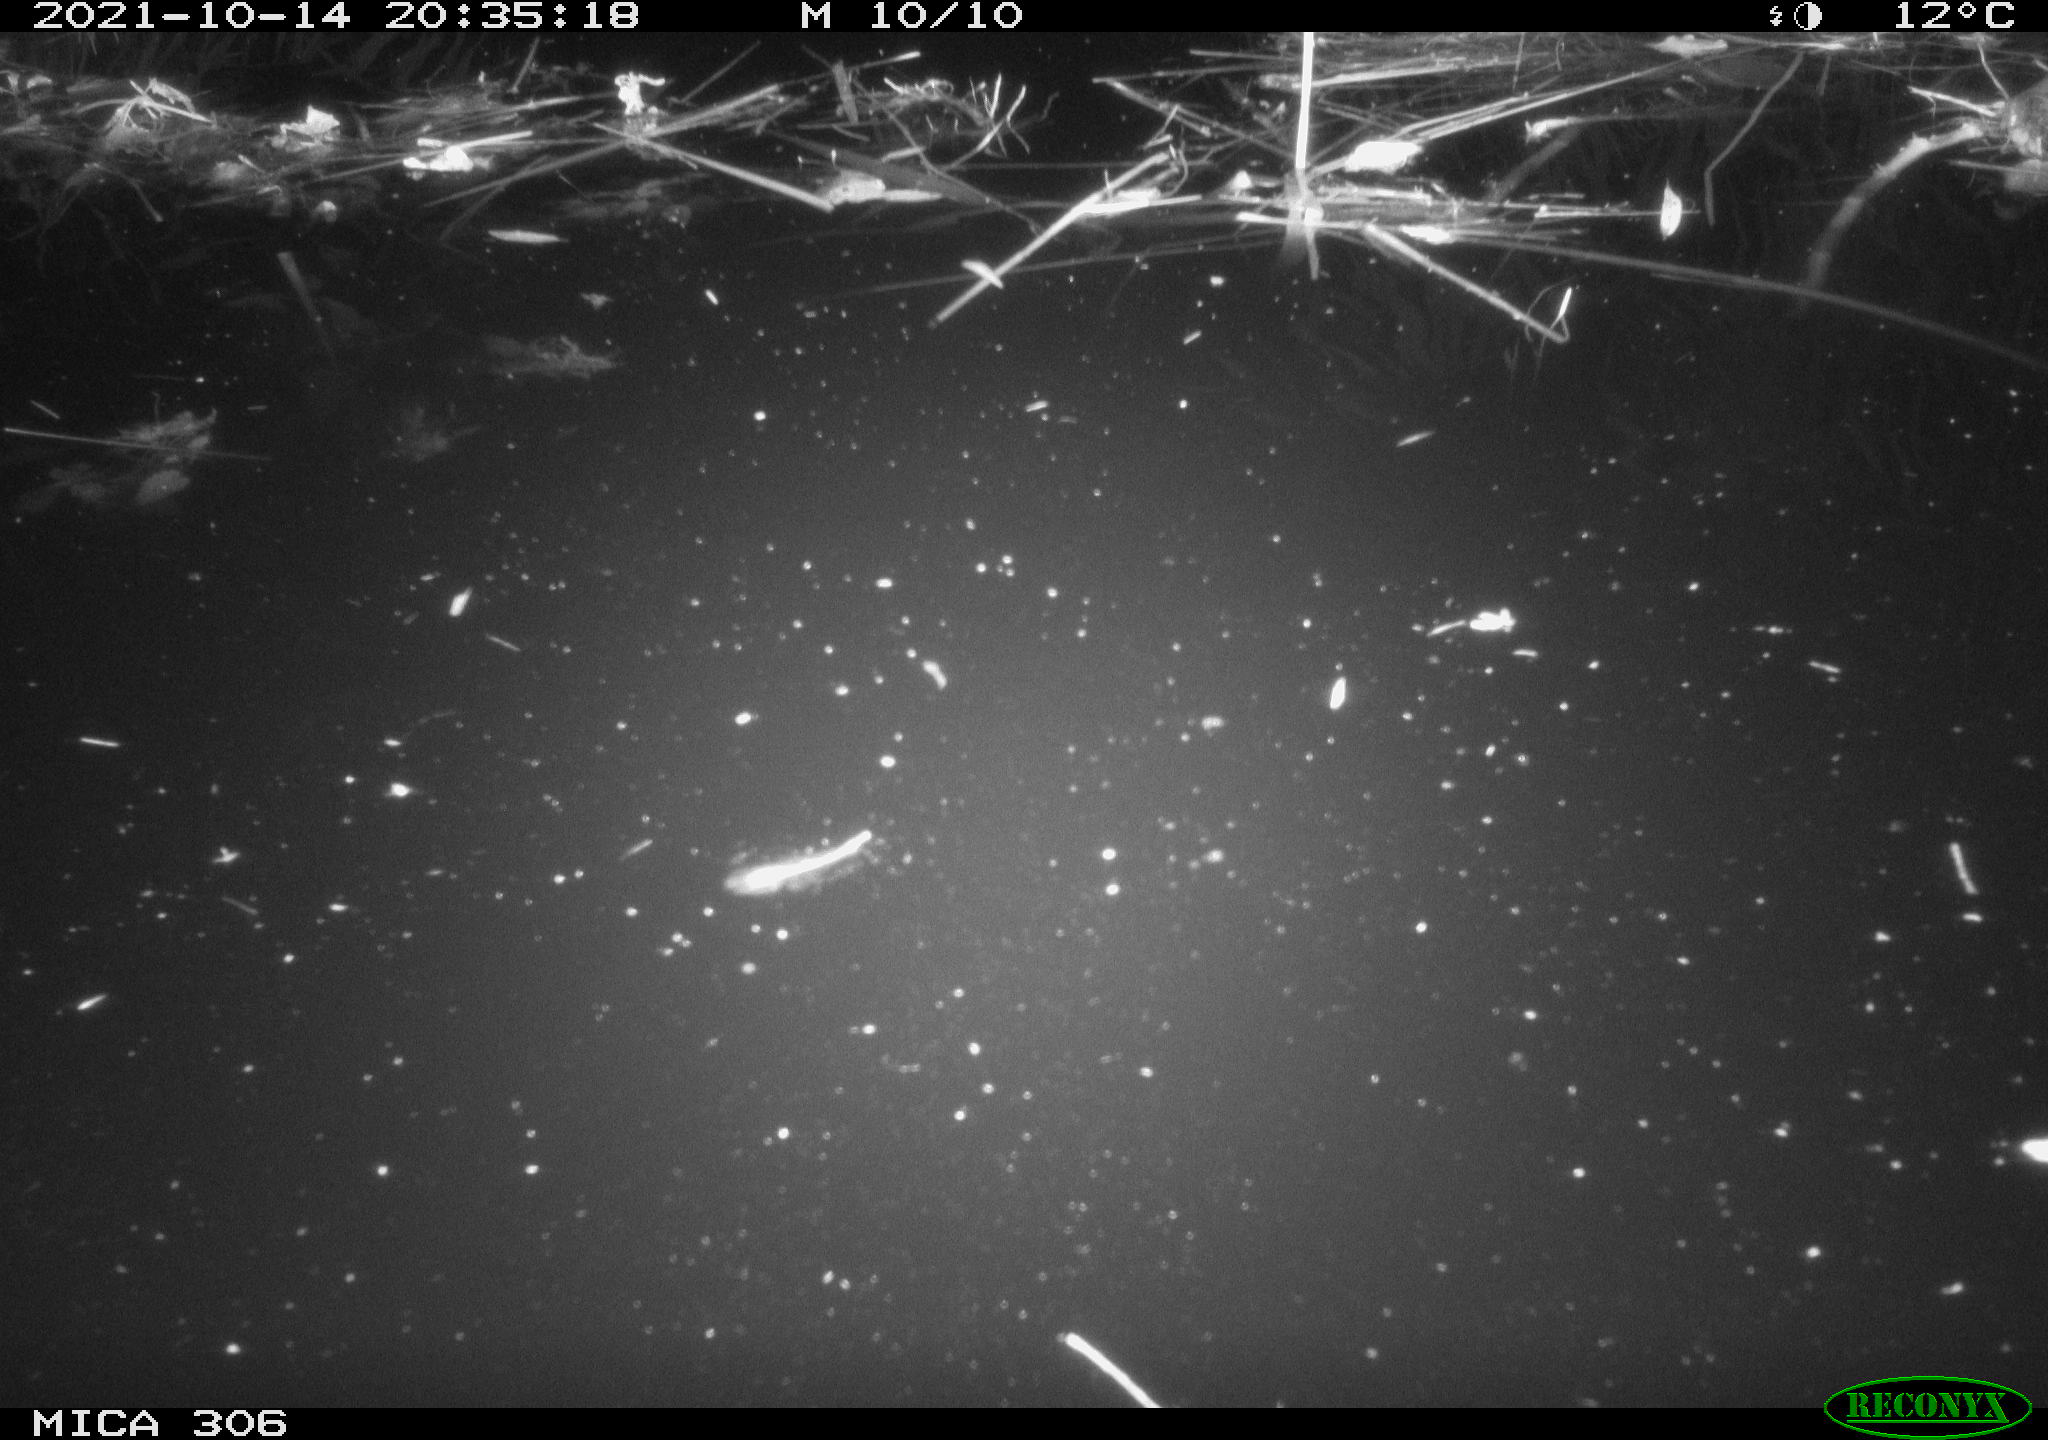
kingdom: Animalia
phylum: Chordata
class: Mammalia
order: Rodentia
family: Cricetidae
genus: Ondatra
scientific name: Ondatra zibethicus
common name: Muskrat
